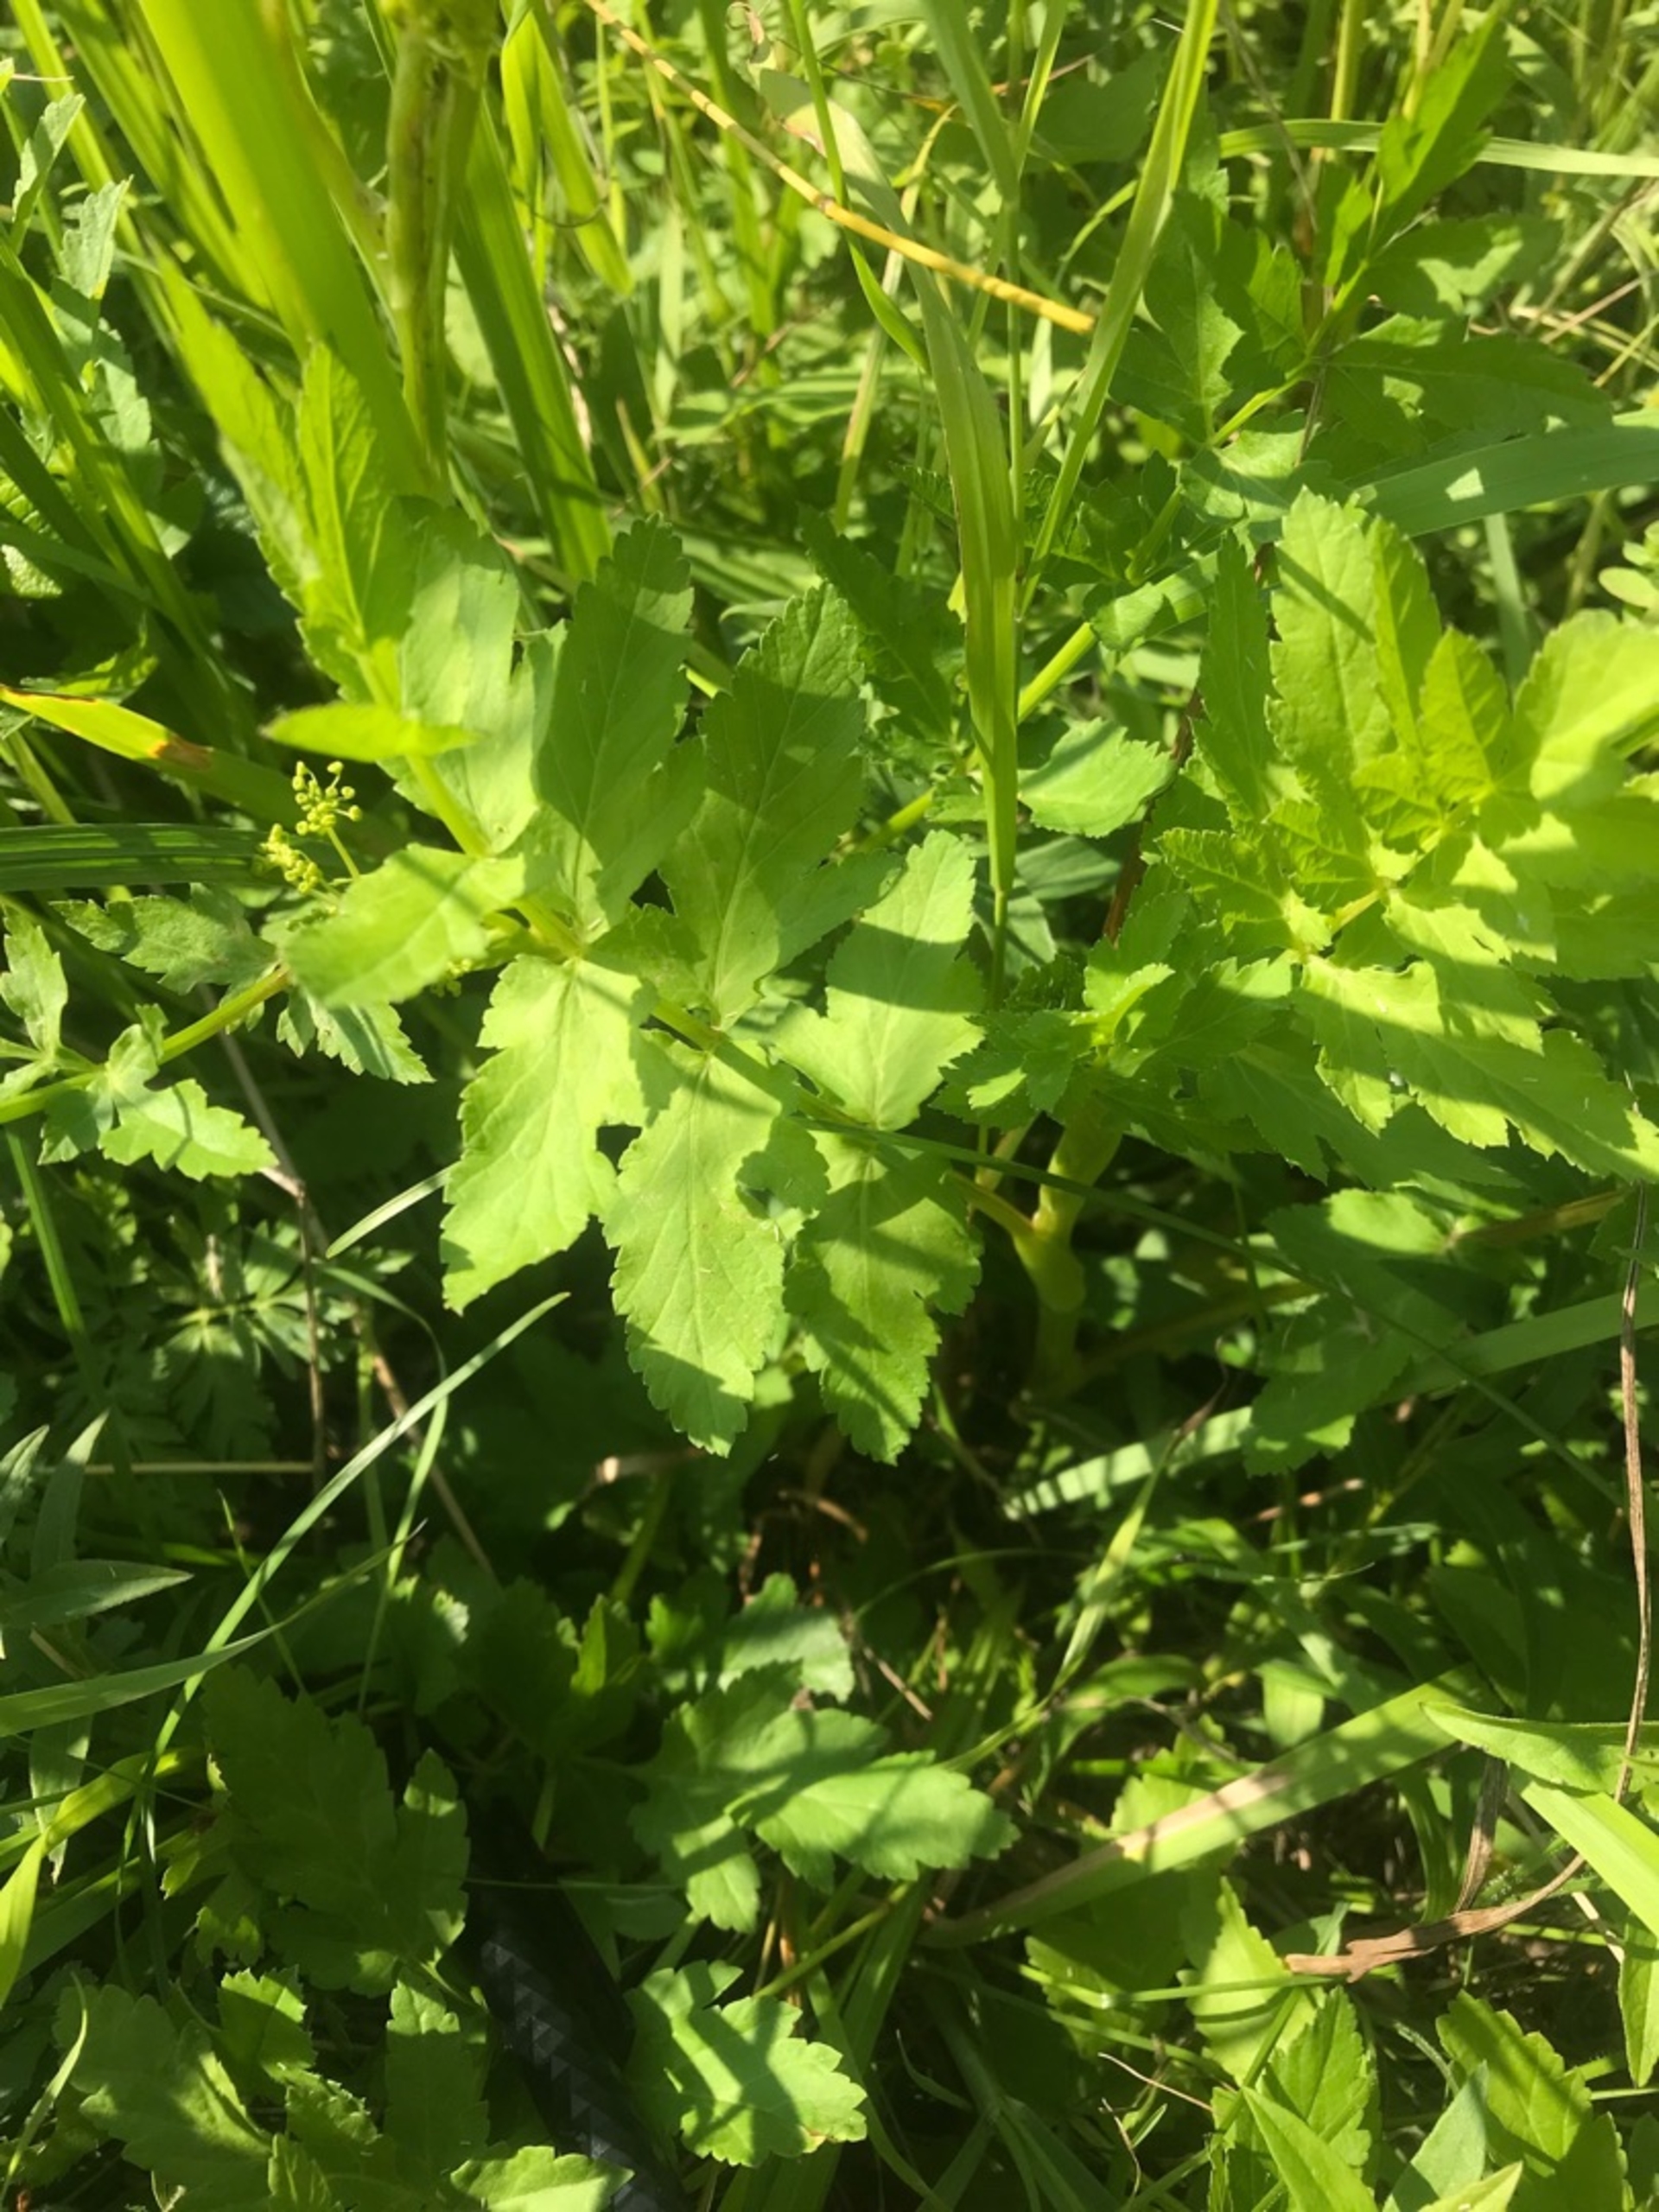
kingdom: Plantae
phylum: Tracheophyta
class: Magnoliopsida
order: Apiales
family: Apiaceae
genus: Pastinaca
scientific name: Pastinaca sativa
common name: Pastinak
